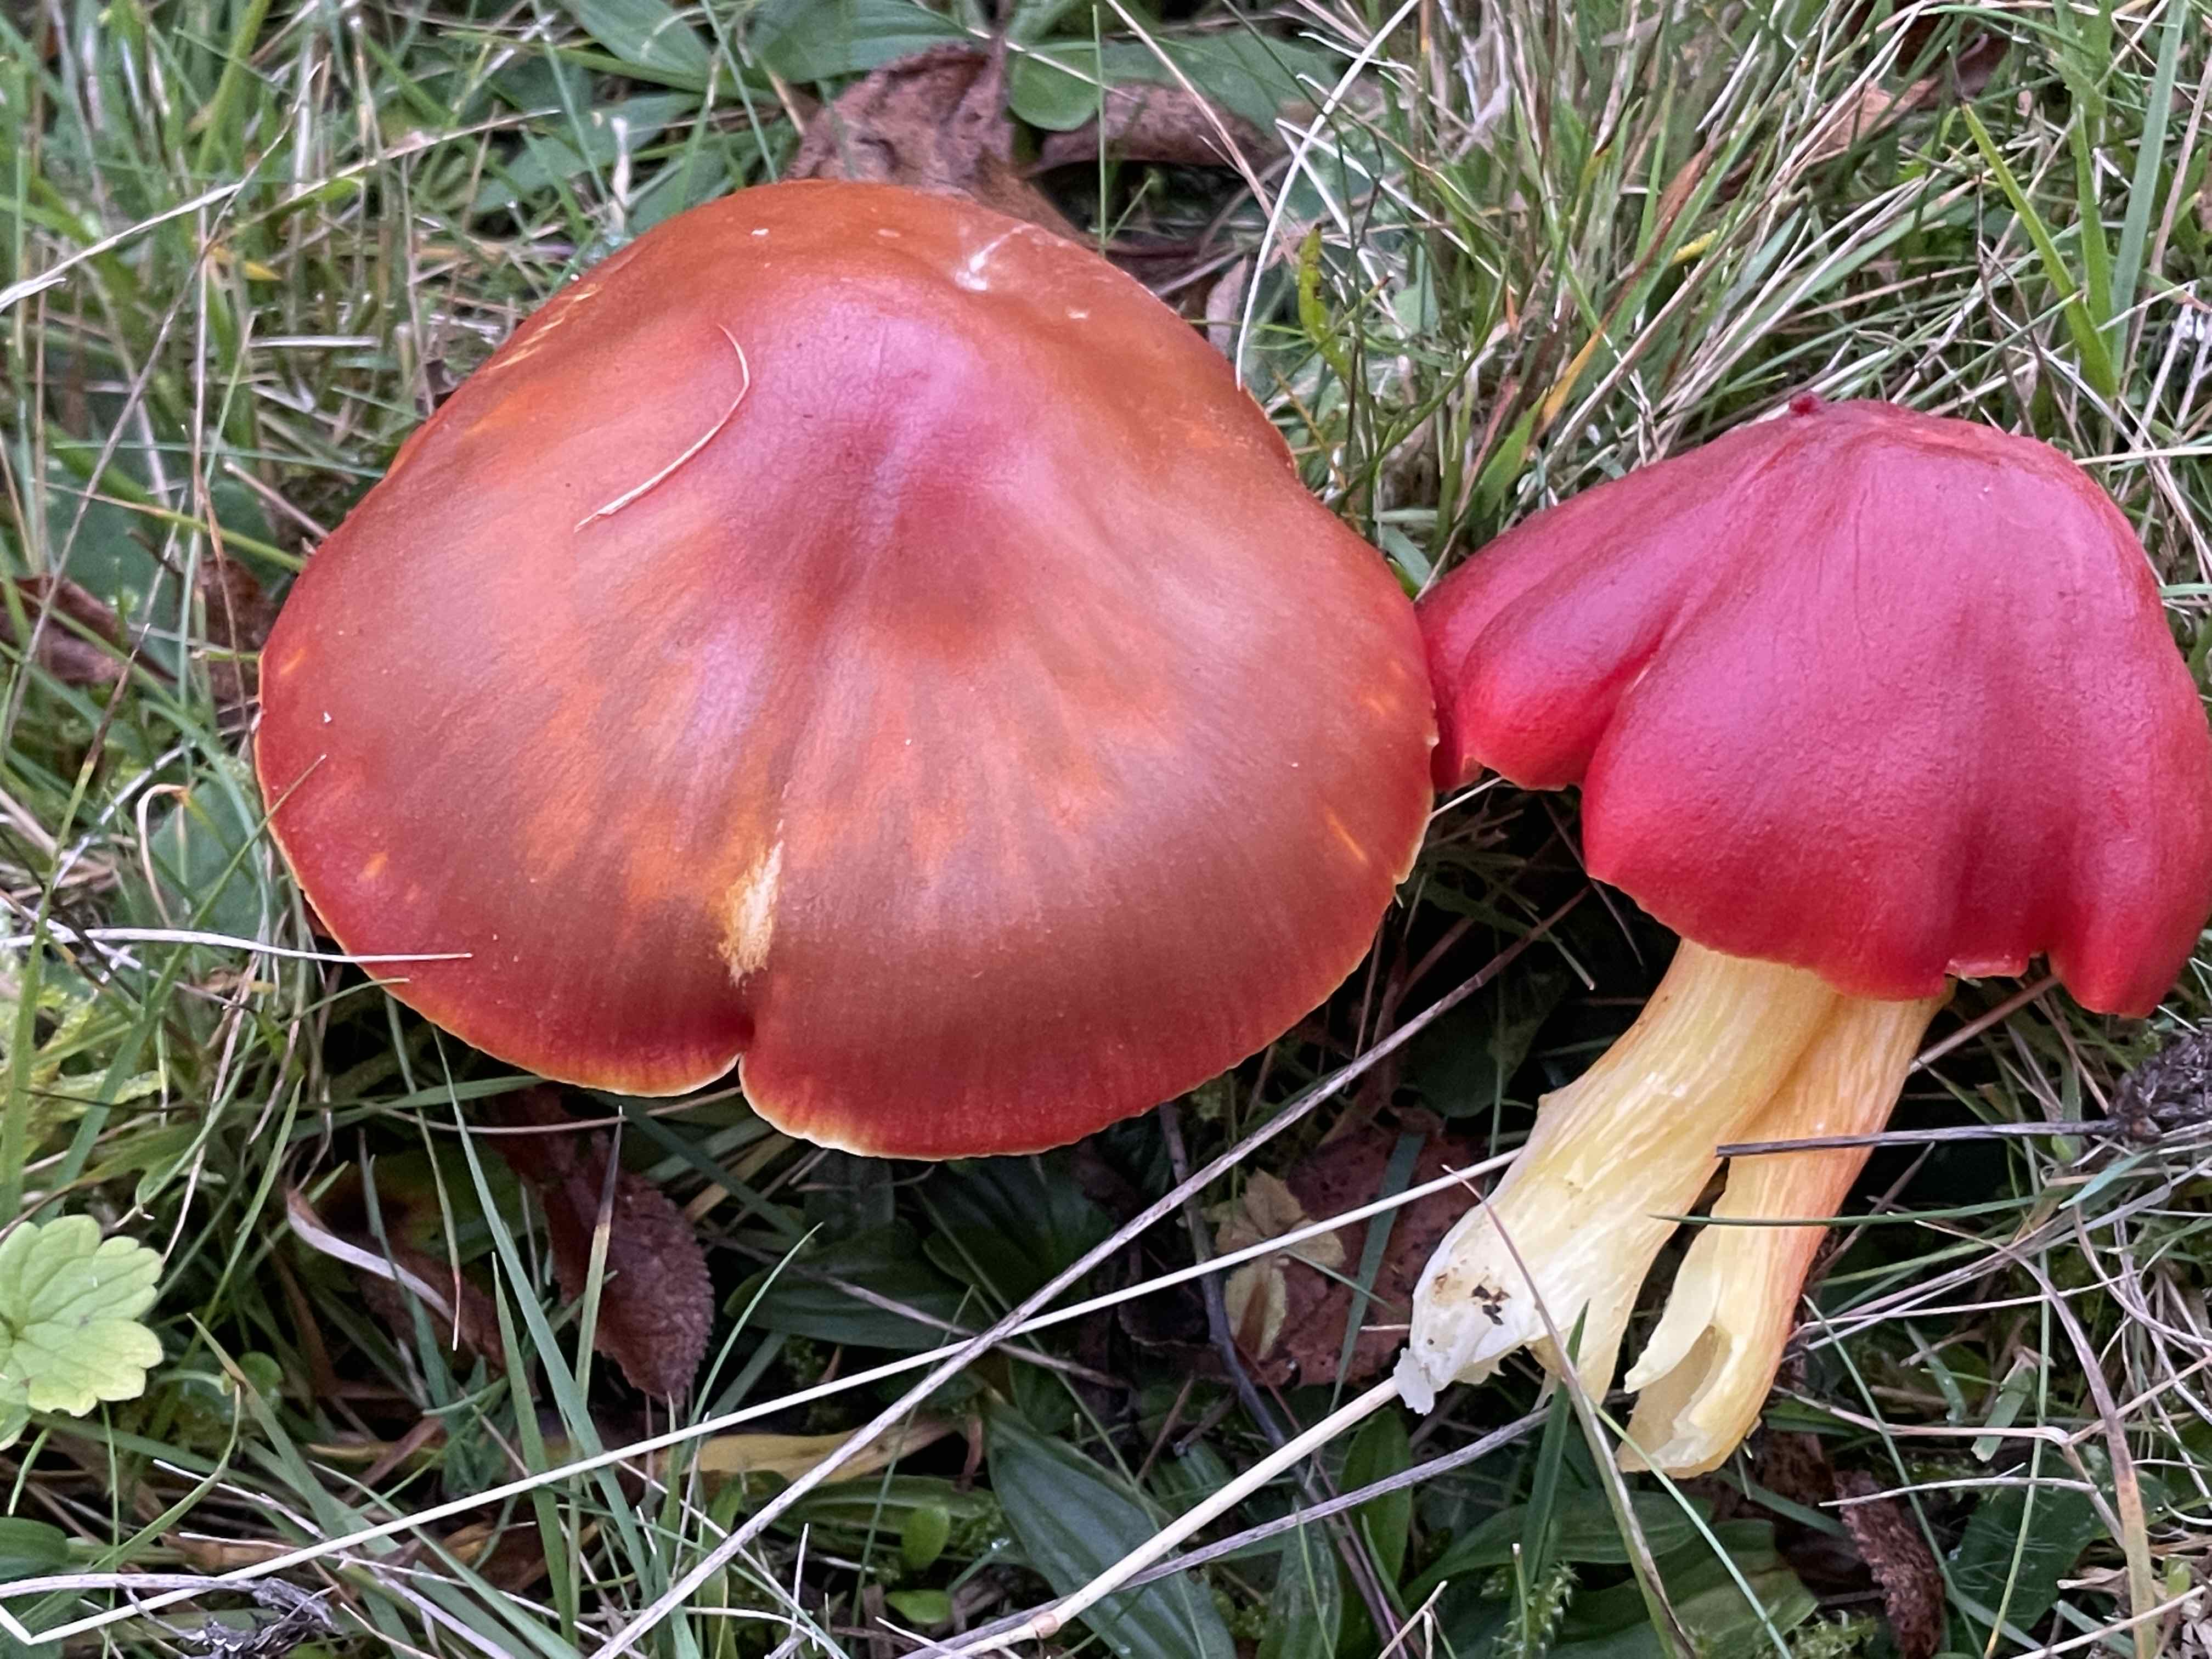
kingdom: Fungi
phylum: Basidiomycota
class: Agaricomycetes
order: Agaricales
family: Hygrophoraceae
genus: Hygrocybe
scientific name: Hygrocybe punicea
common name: skarlagen-vokshat
